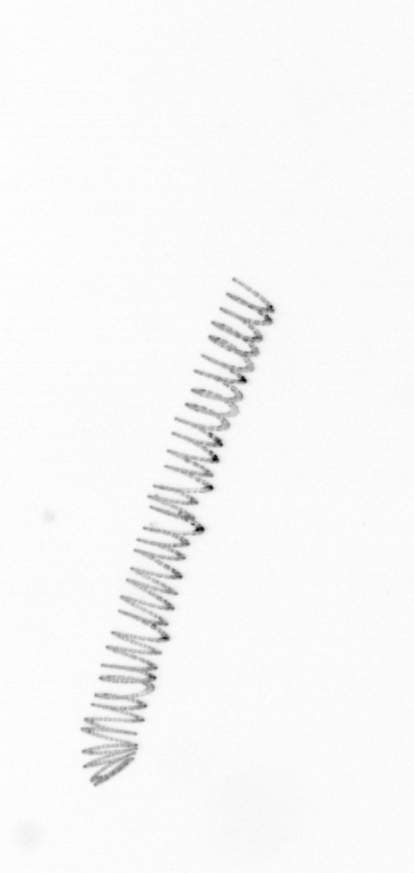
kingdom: Chromista
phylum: Ochrophyta
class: Bacillariophyceae
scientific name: Bacillariophyceae
